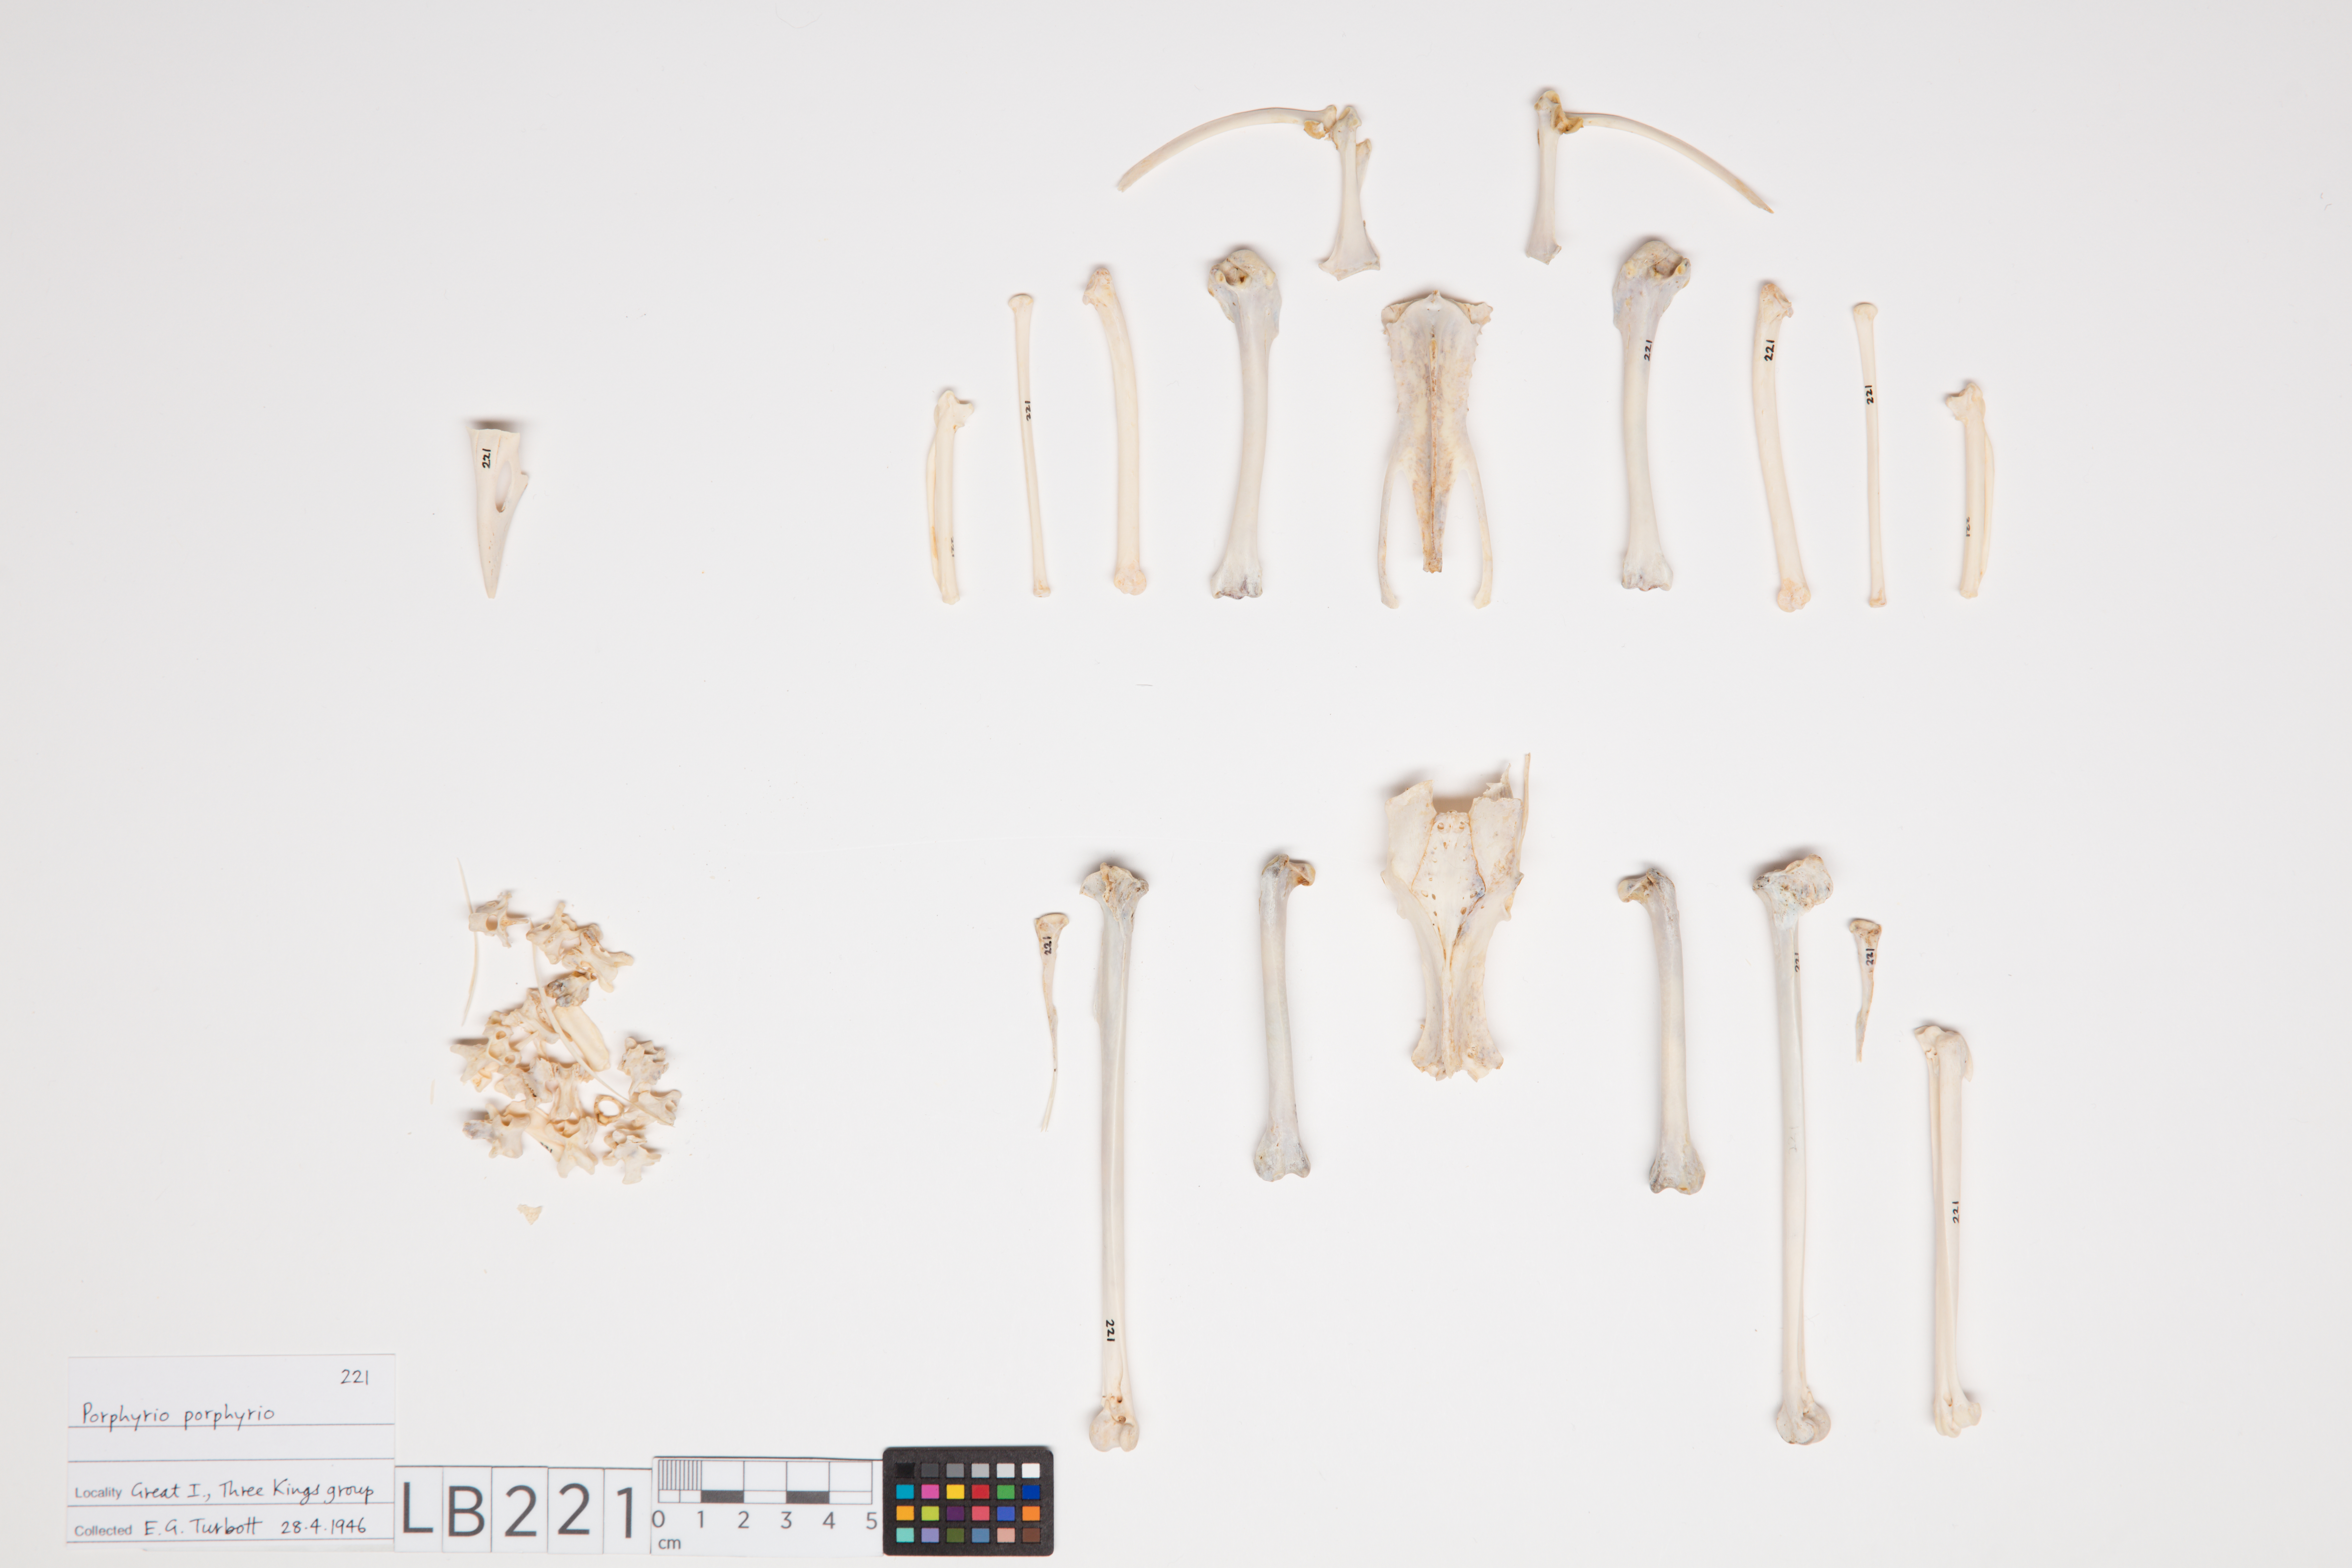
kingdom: Animalia
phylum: Chordata
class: Aves
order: Gruiformes
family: Rallidae
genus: Porphyrio
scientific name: Porphyrio melanotus
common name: Australasian swamphen
